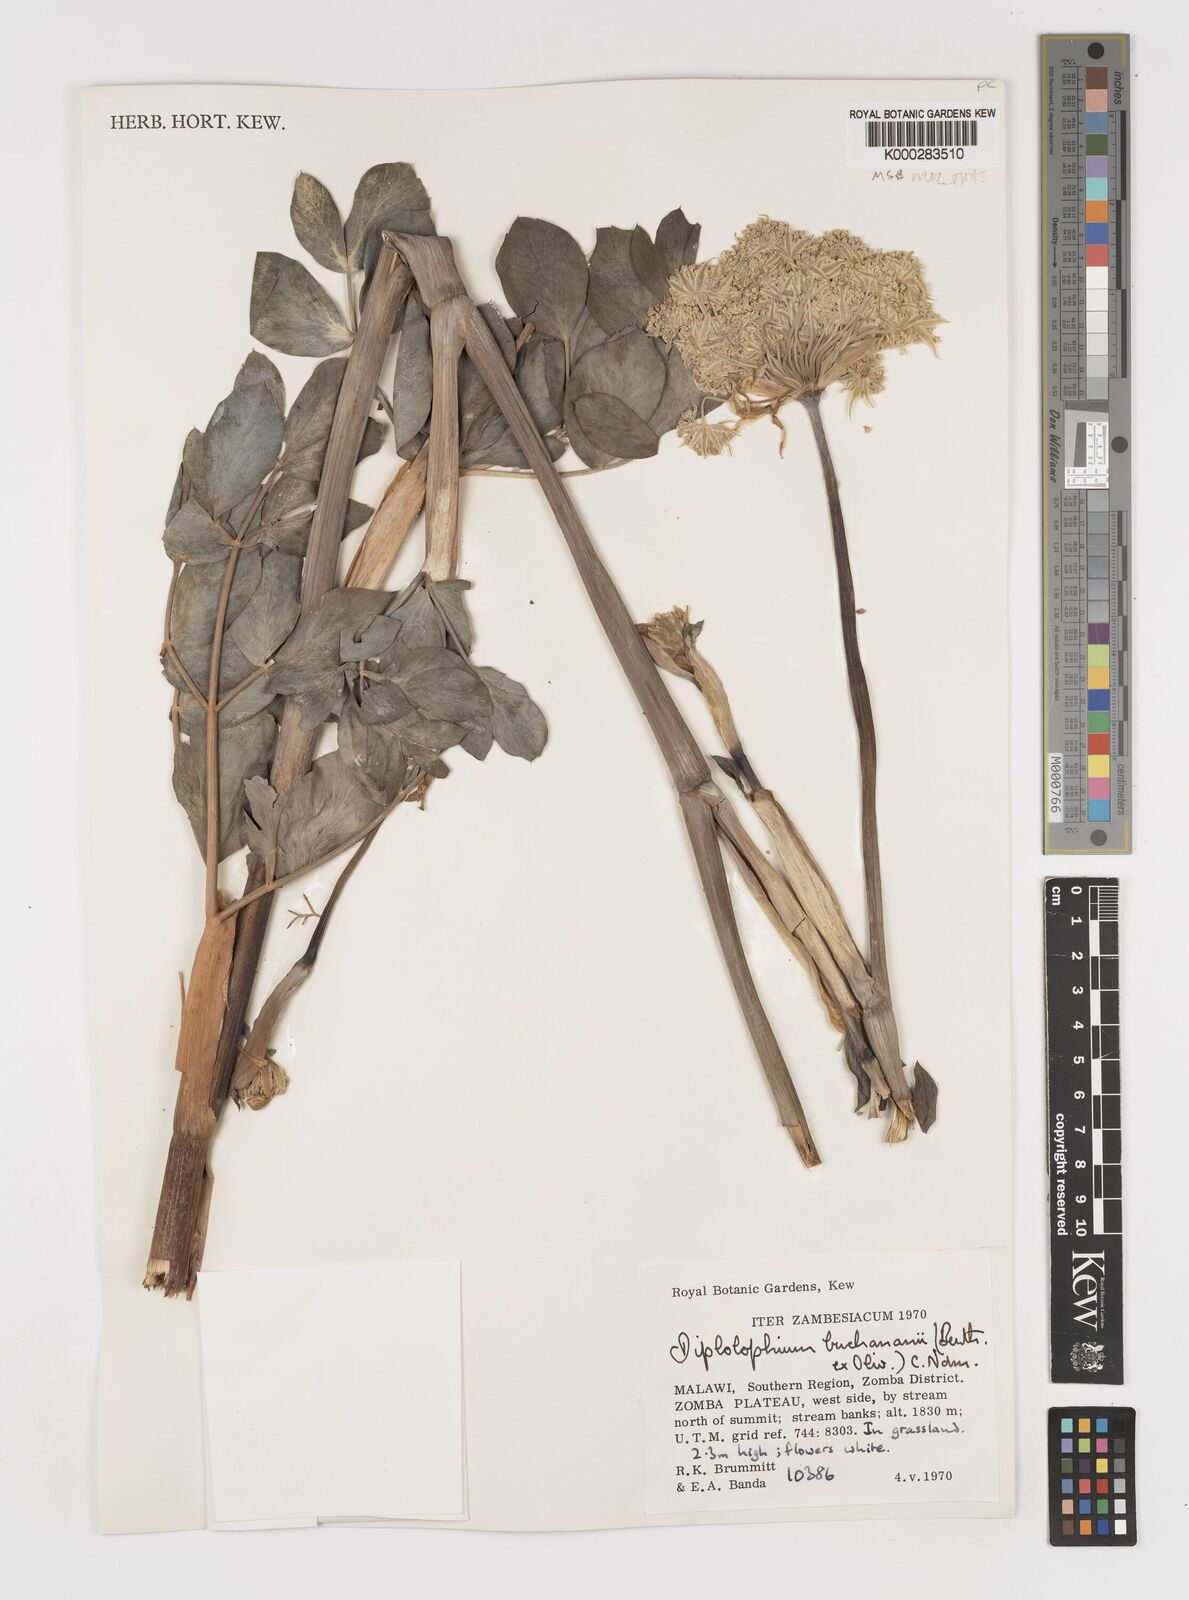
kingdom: Plantae
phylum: Tracheophyta
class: Magnoliopsida
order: Apiales
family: Apiaceae
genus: Diplolophium
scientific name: Diplolophium buchananii
